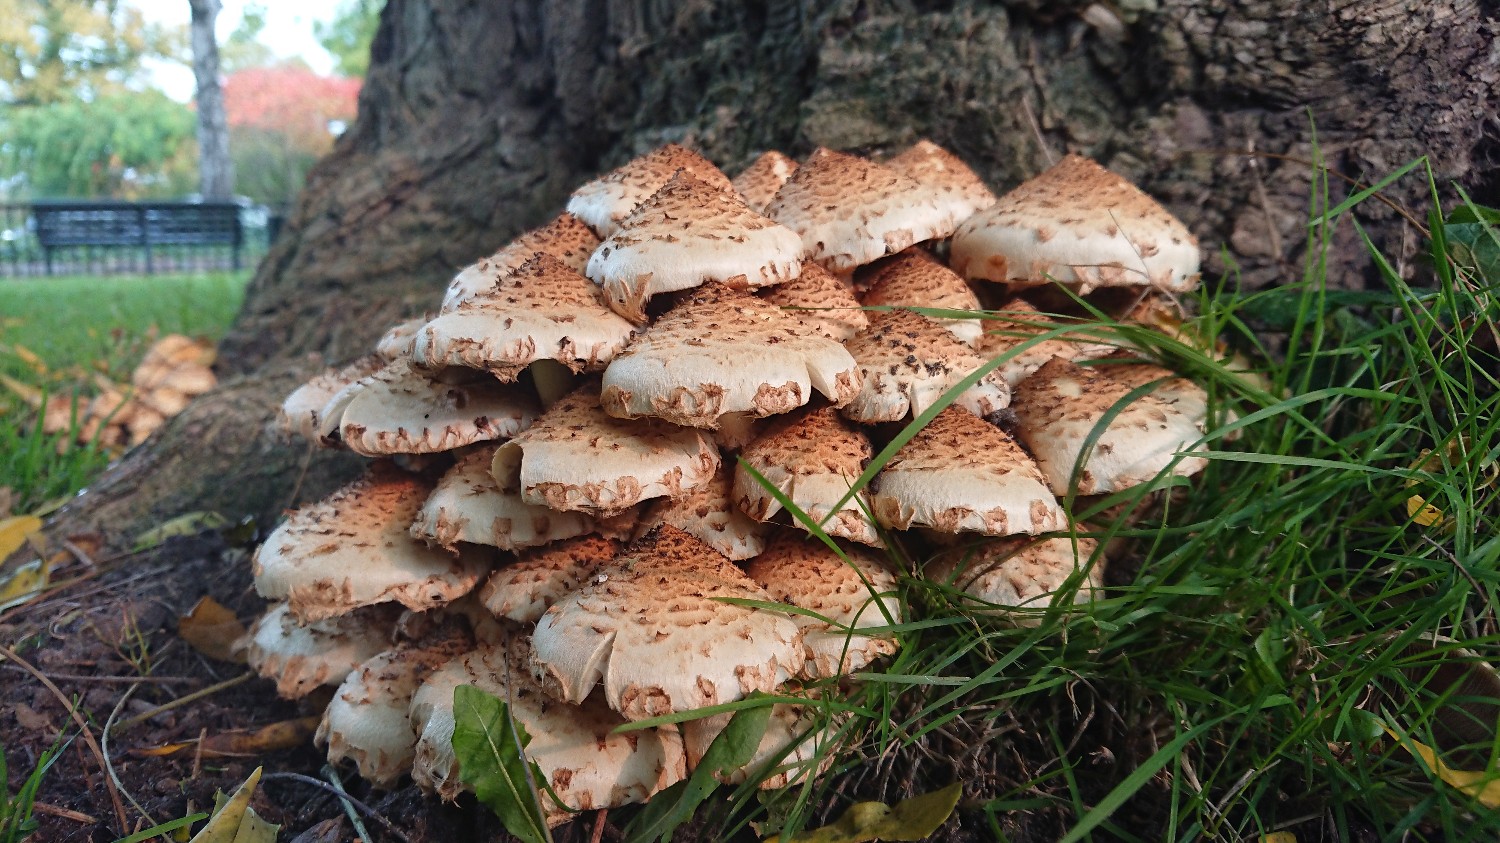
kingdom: Fungi
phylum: Basidiomycota
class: Agaricomycetes
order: Agaricales
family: Strophariaceae
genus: Pholiota
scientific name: Pholiota squarrosa
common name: krumskællet skælhat
